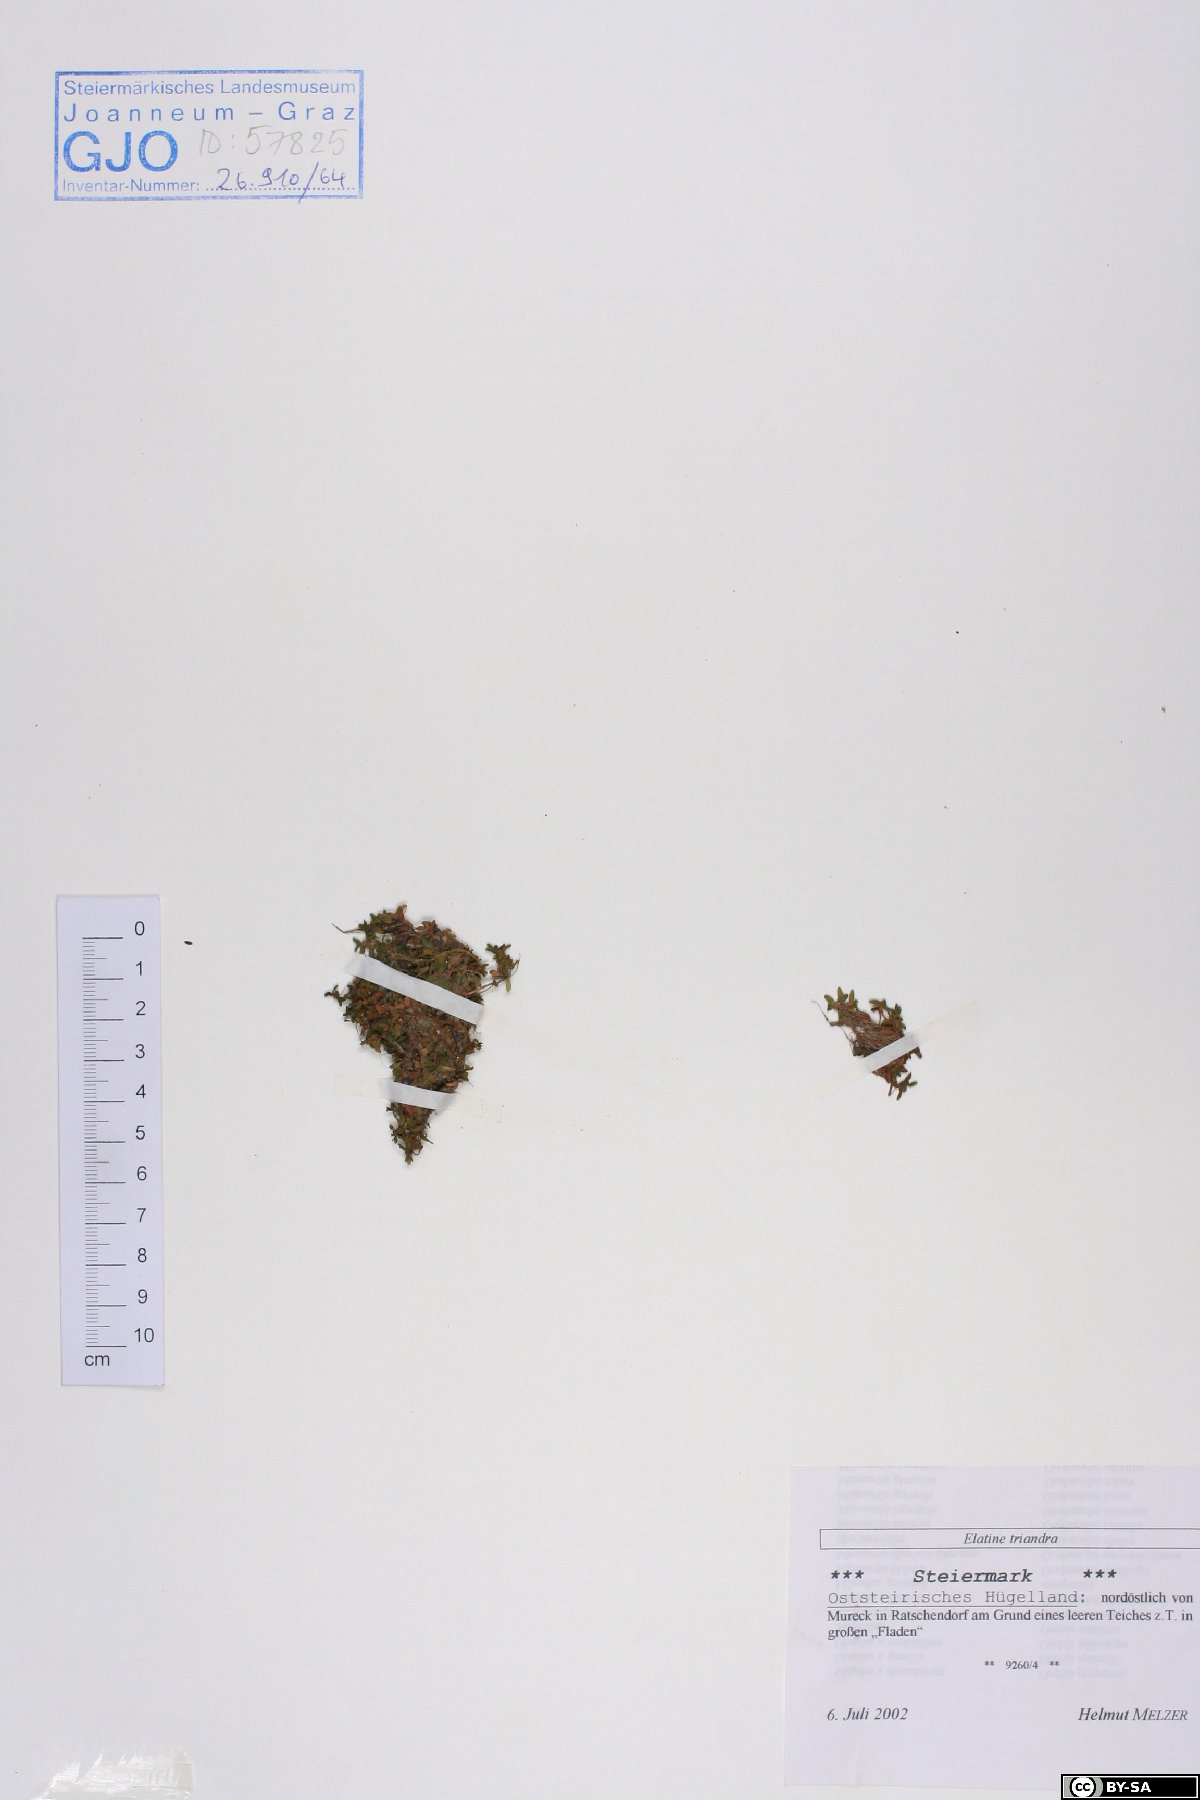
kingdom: Plantae
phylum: Tracheophyta
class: Magnoliopsida
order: Malpighiales
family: Elatinaceae
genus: Elatine
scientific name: Elatine triandra
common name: Three-stamened waterwort
